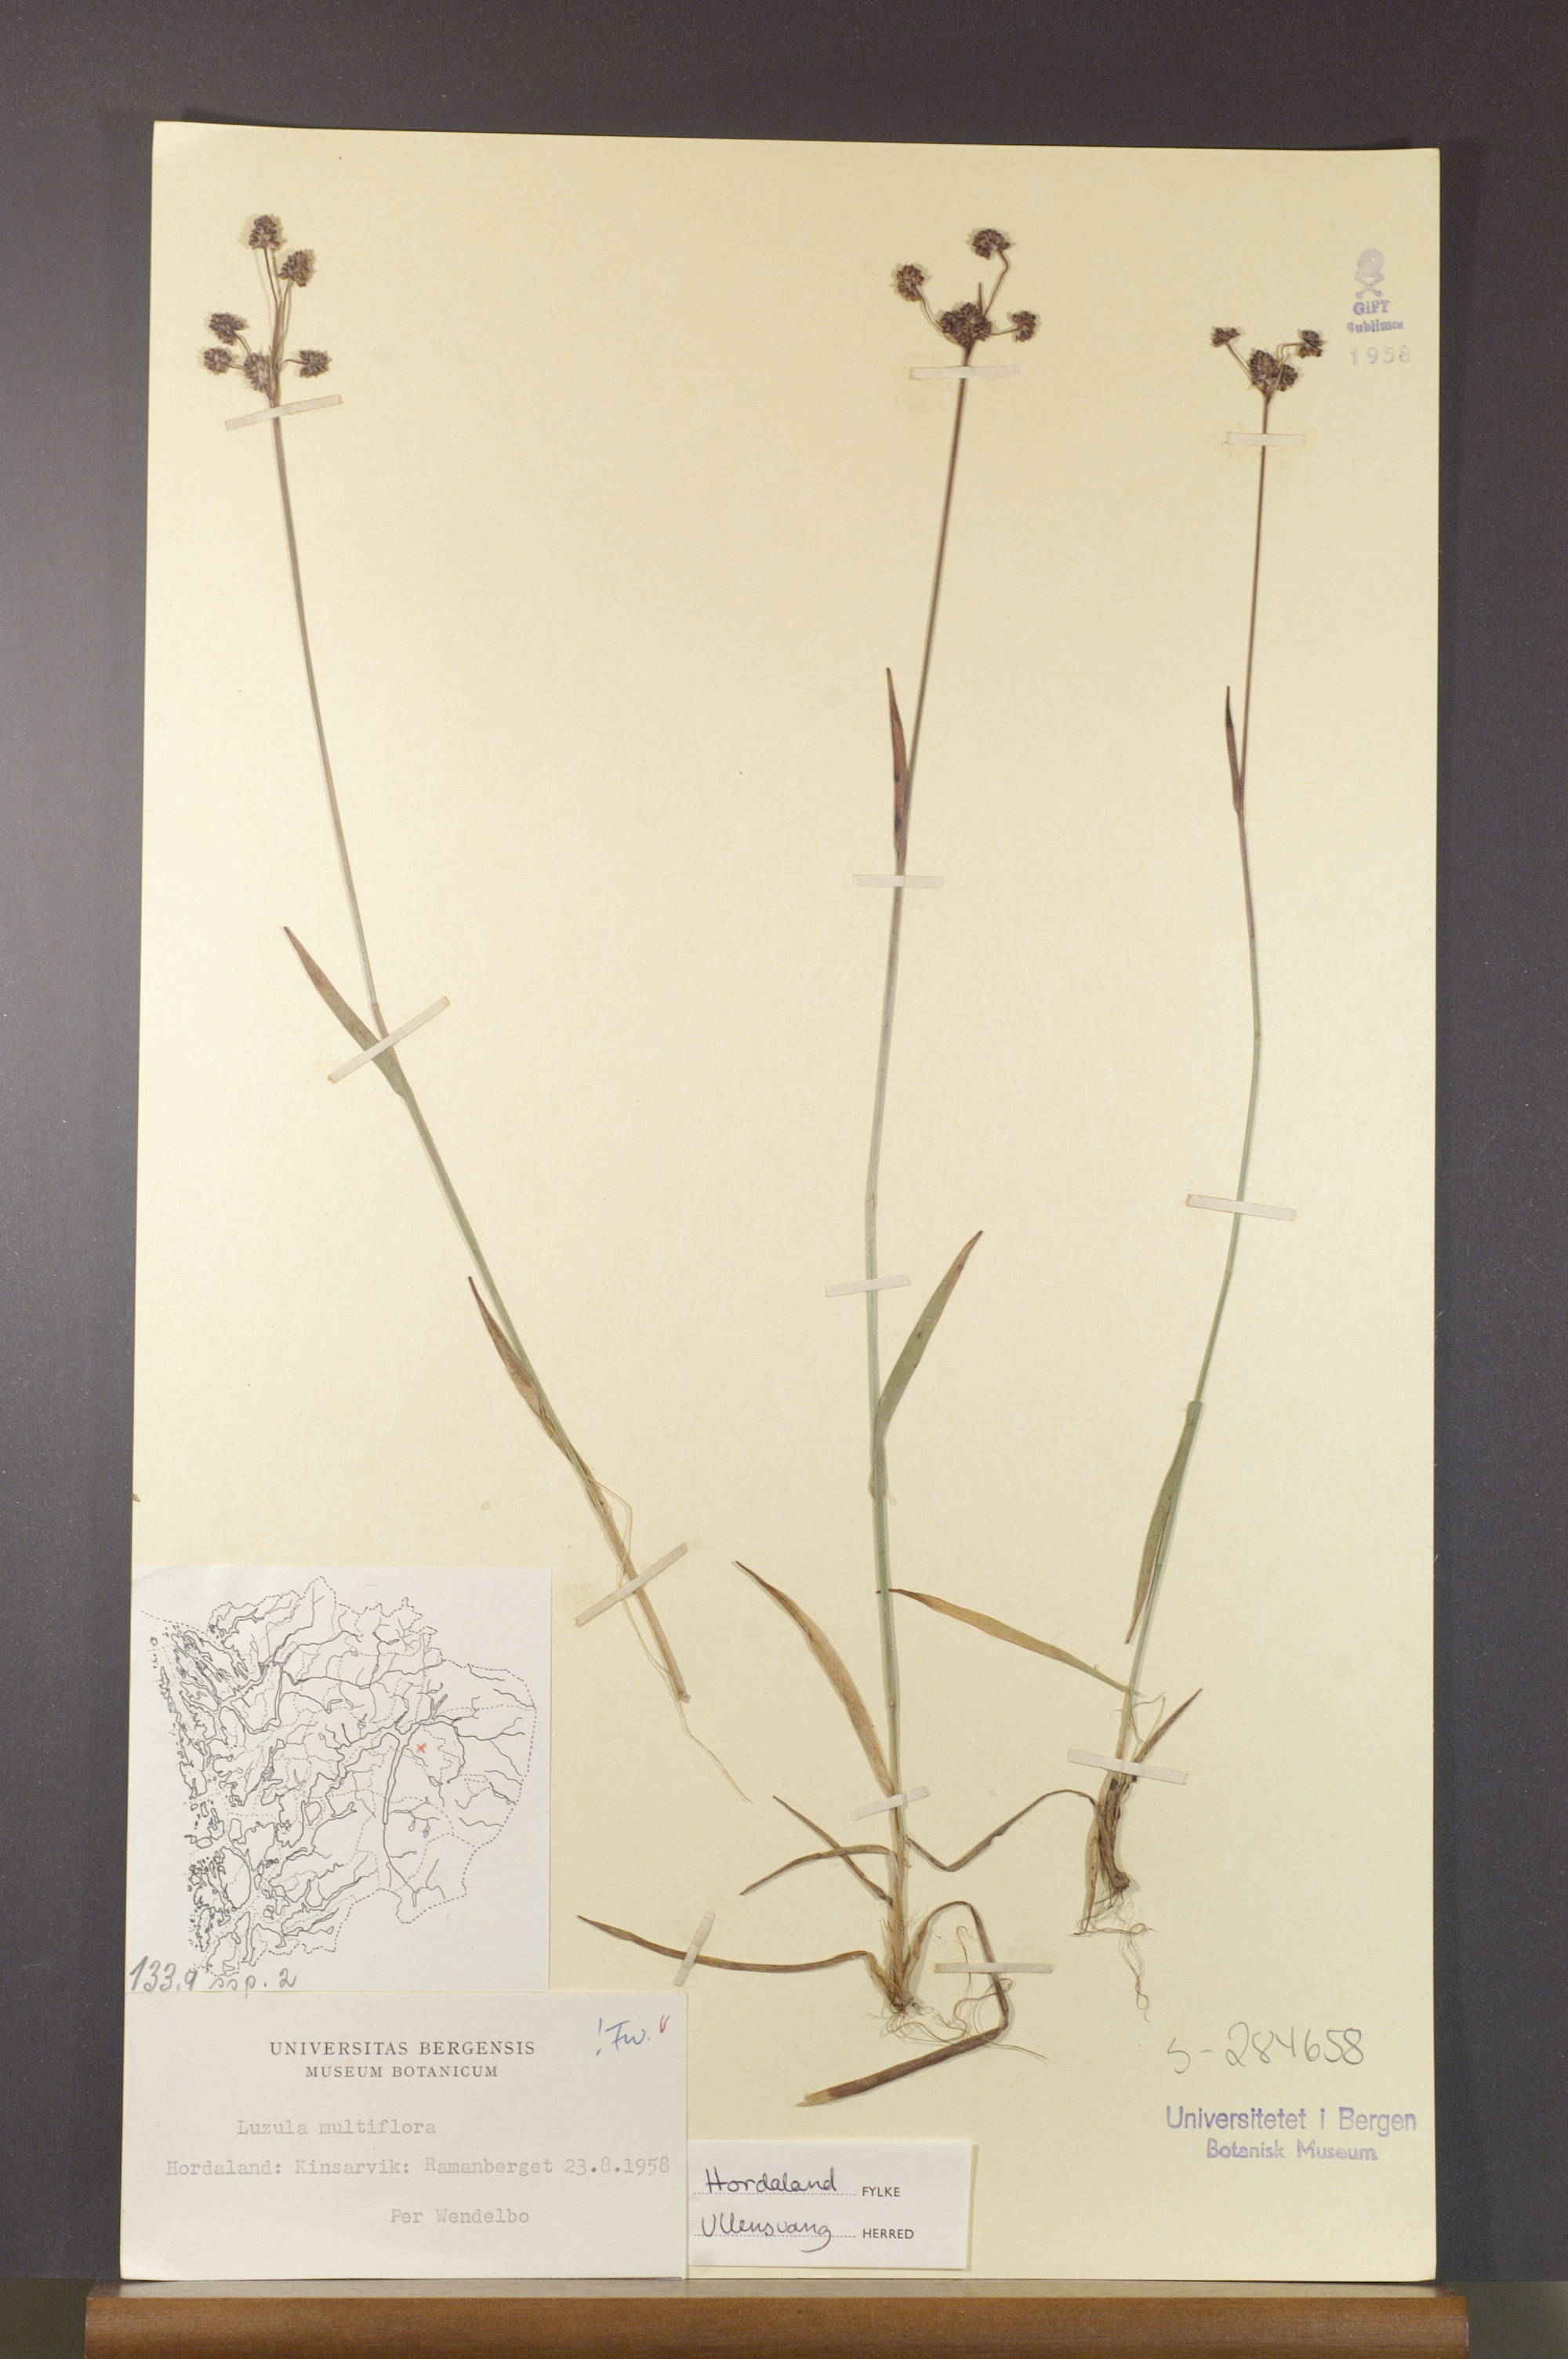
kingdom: Plantae
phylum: Tracheophyta
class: Liliopsida
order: Poales
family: Juncaceae
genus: Luzula
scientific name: Luzula multiflora
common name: Heath wood-rush
